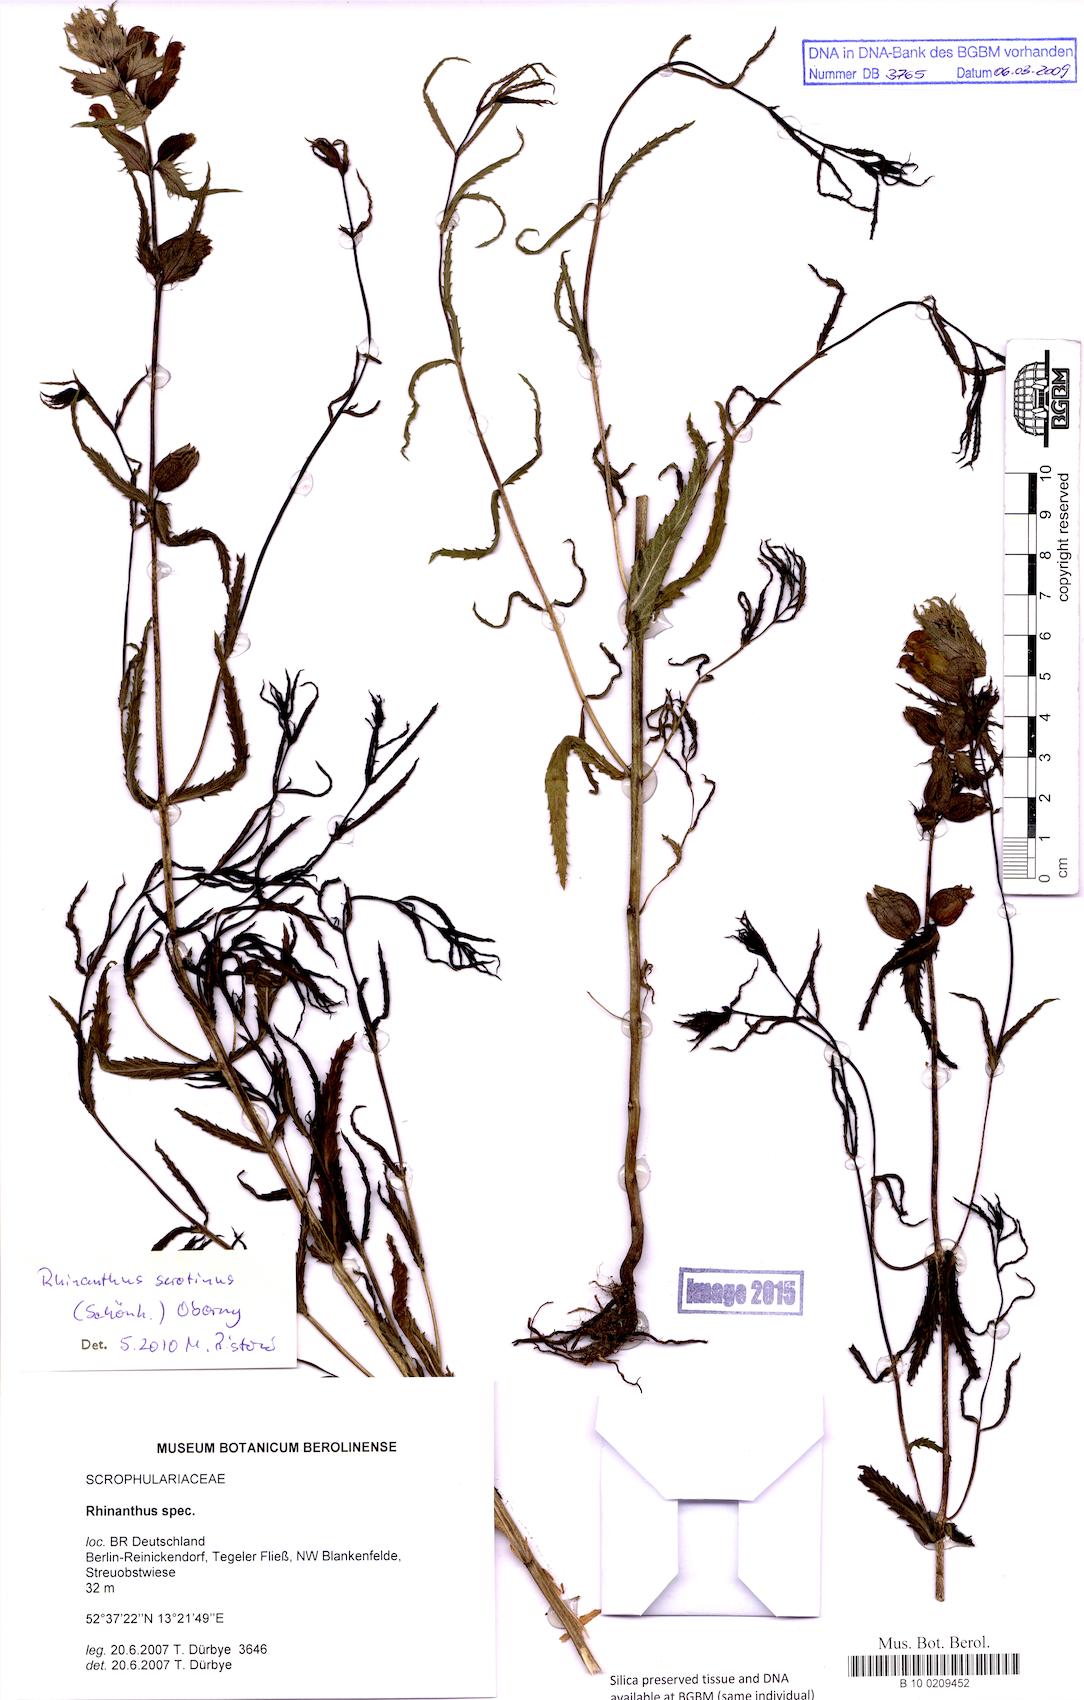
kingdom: Plantae
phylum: Tracheophyta
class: Magnoliopsida
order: Lamiales
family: Orobanchaceae
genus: Rhinanthus
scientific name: Rhinanthus
